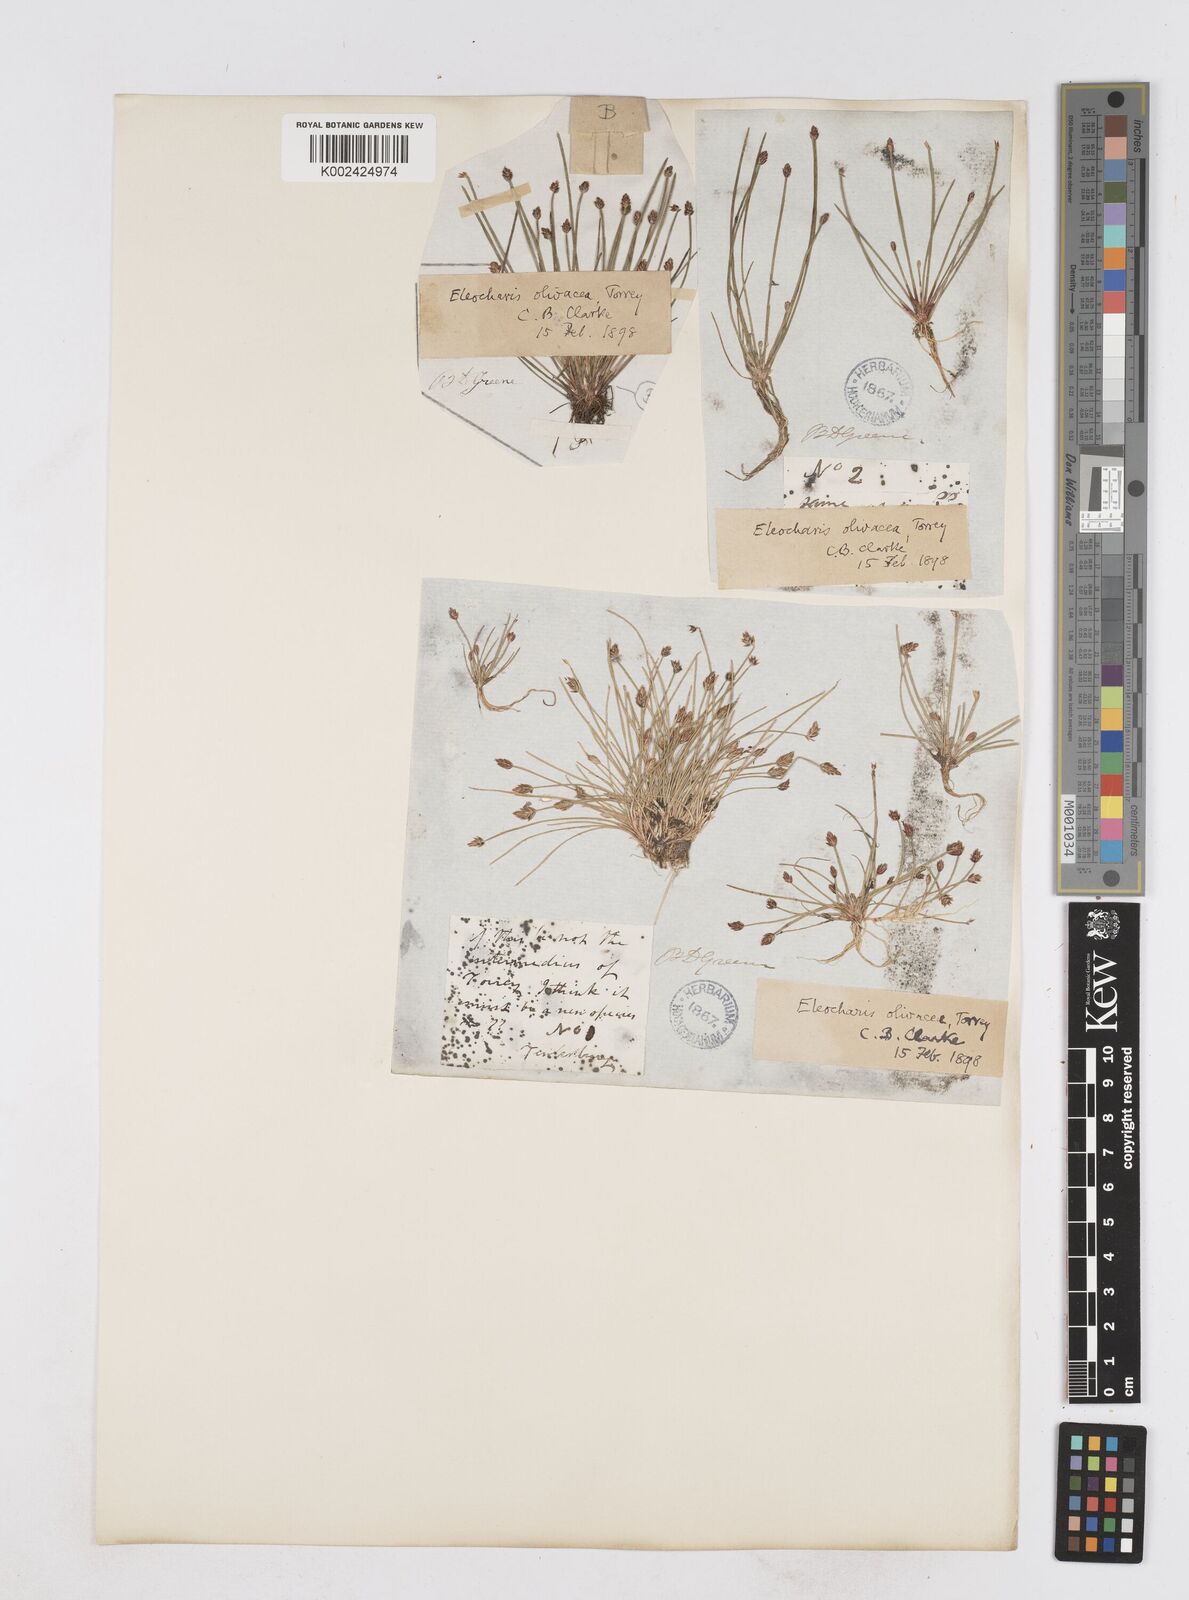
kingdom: Plantae
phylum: Tracheophyta
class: Liliopsida
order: Poales
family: Cyperaceae
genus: Eleocharis
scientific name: Eleocharis flavescens
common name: Yellow spikerush
